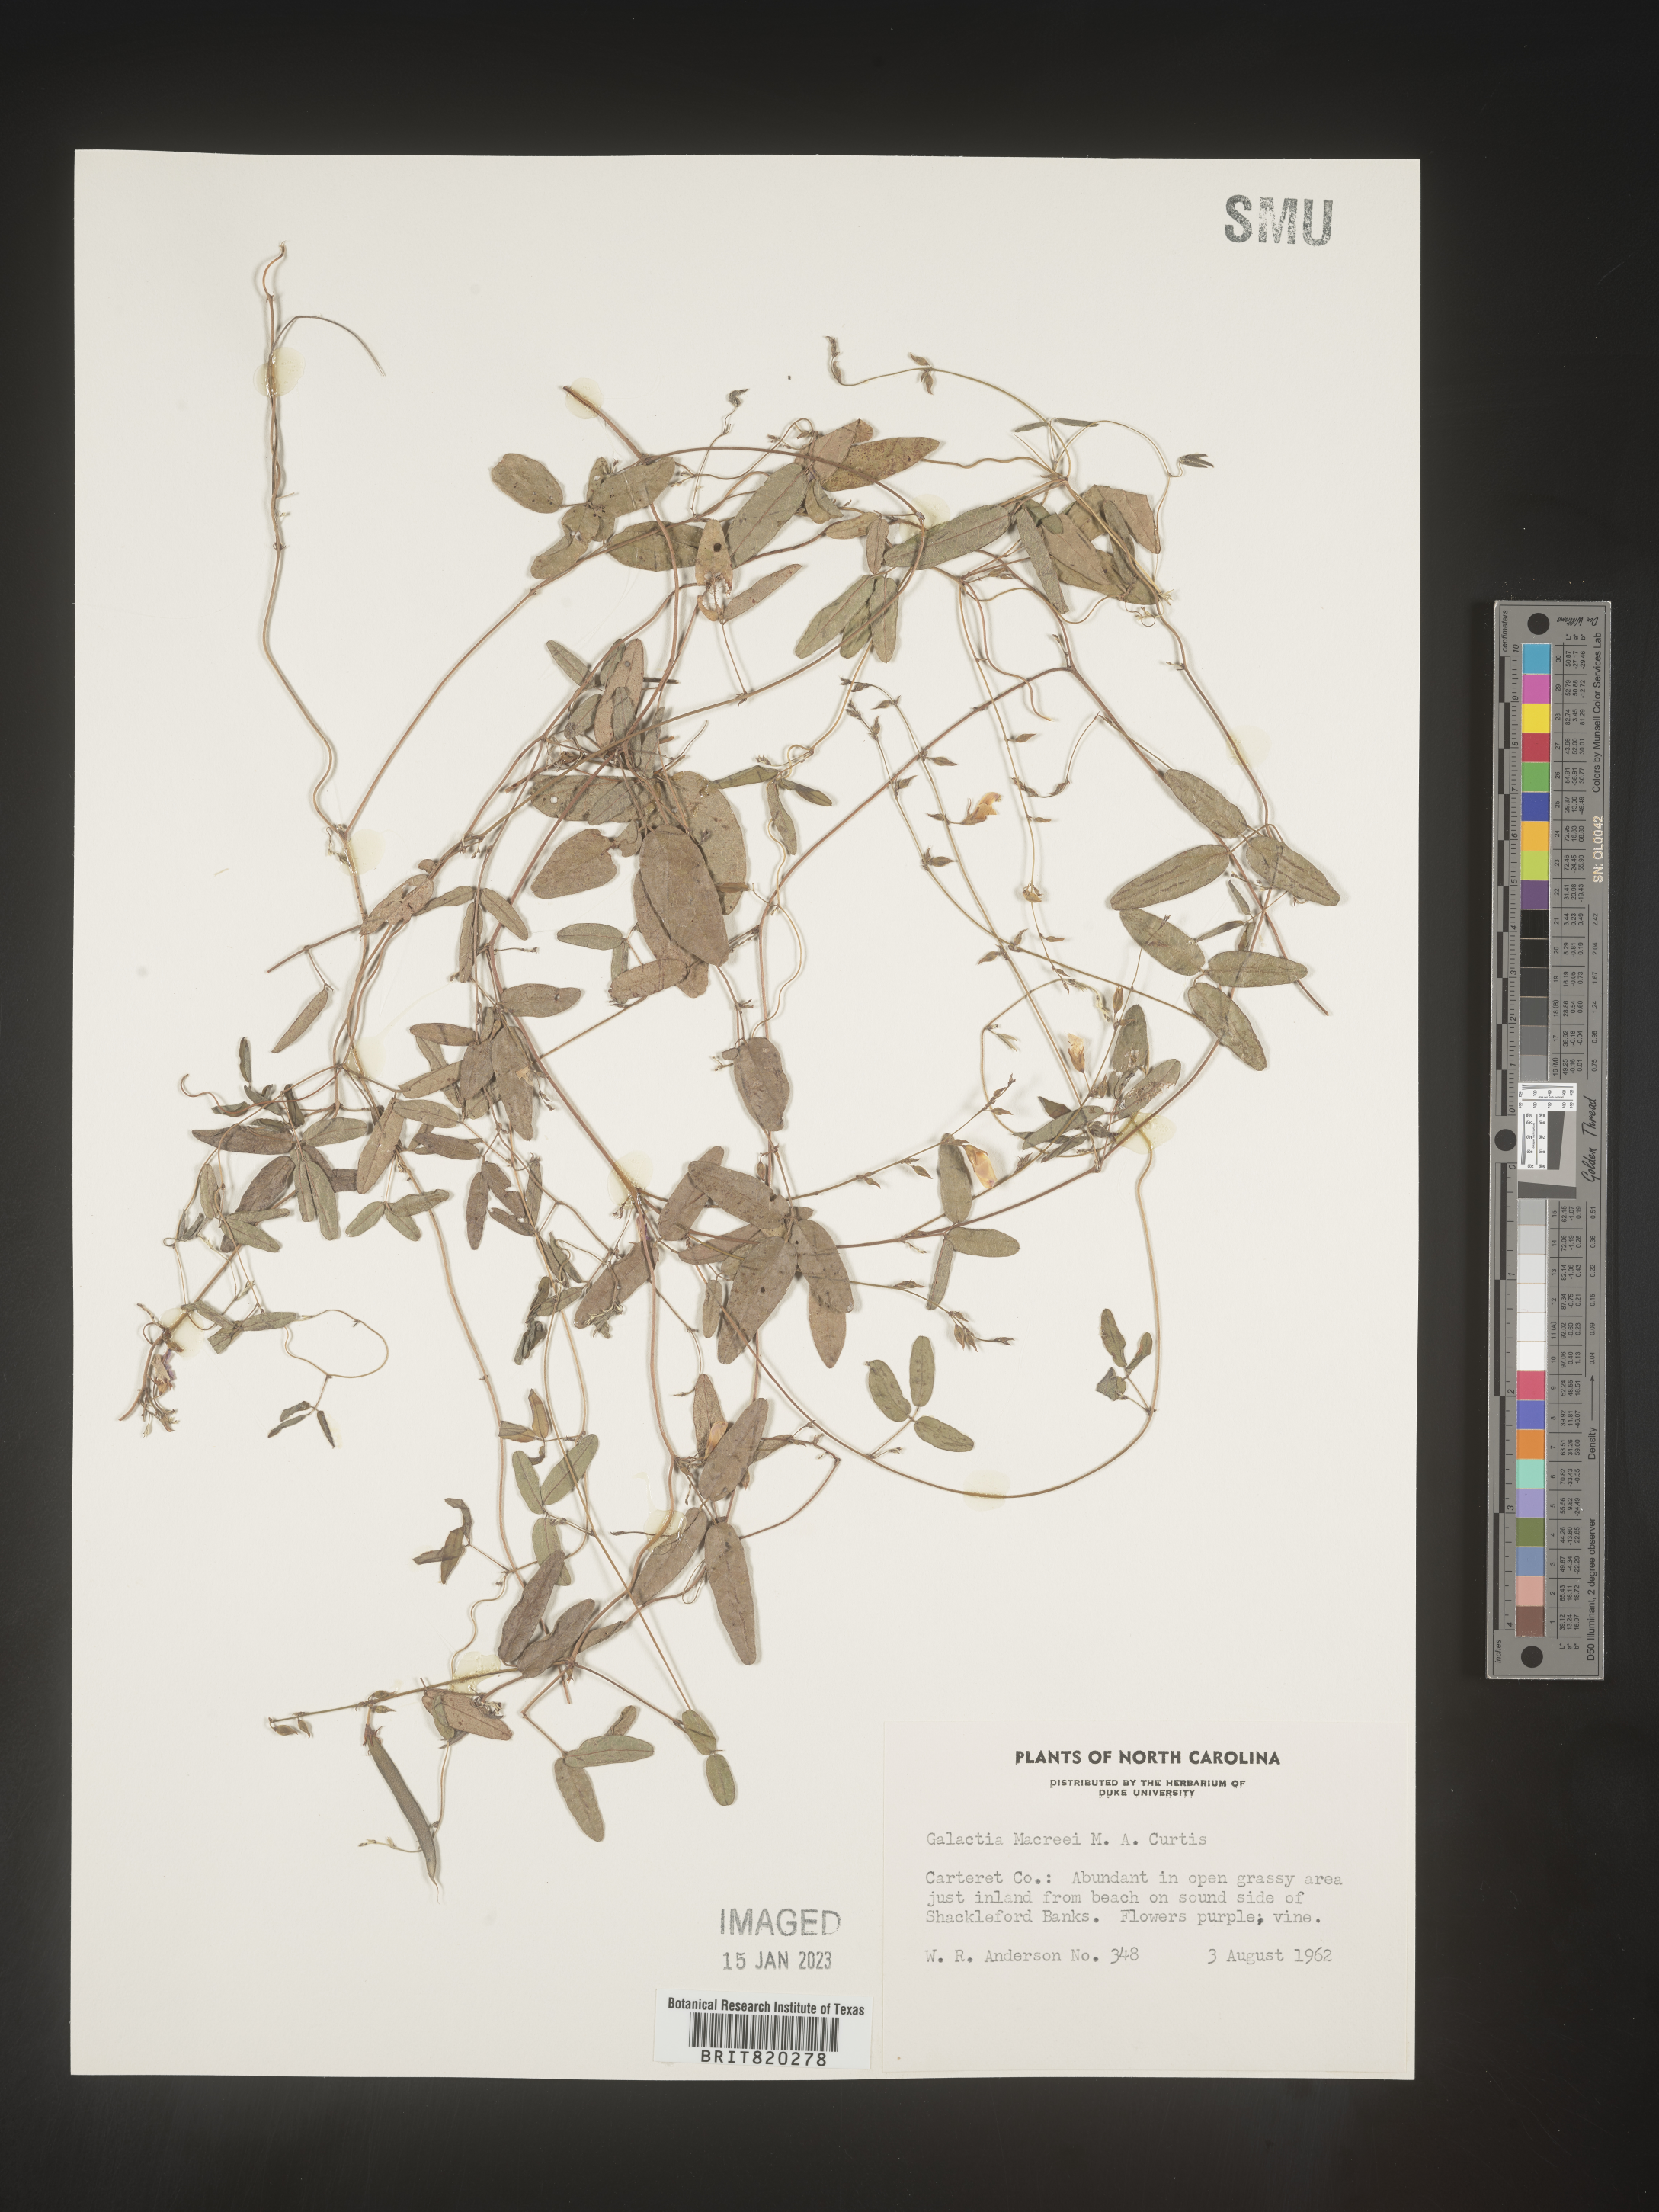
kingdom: Plantae
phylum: Tracheophyta
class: Magnoliopsida
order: Fabales
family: Fabaceae
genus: Galactia
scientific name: Galactia volubilis
